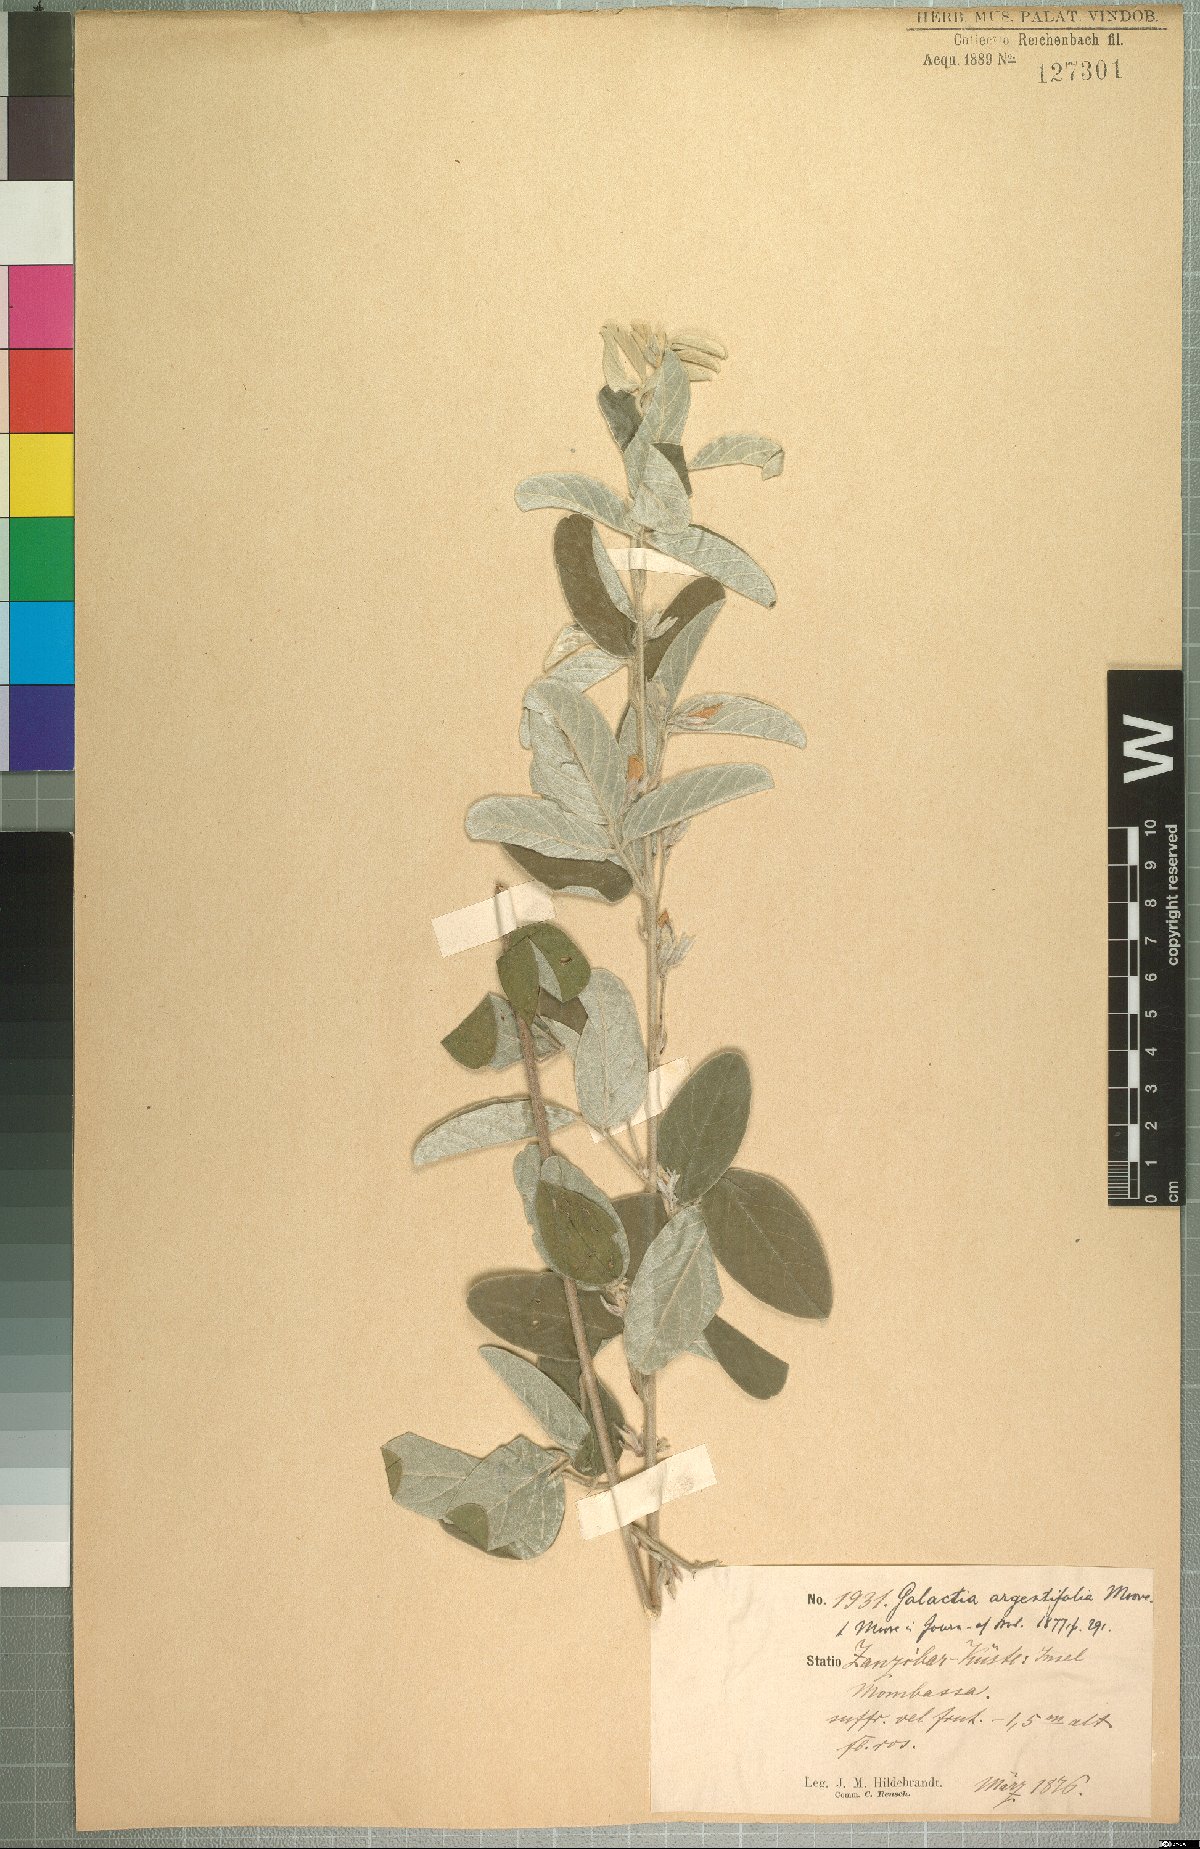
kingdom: Plantae
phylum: Tracheophyta
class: Magnoliopsida
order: Fabales
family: Fabaceae
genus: Galactia
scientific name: Galactia argentifolia
